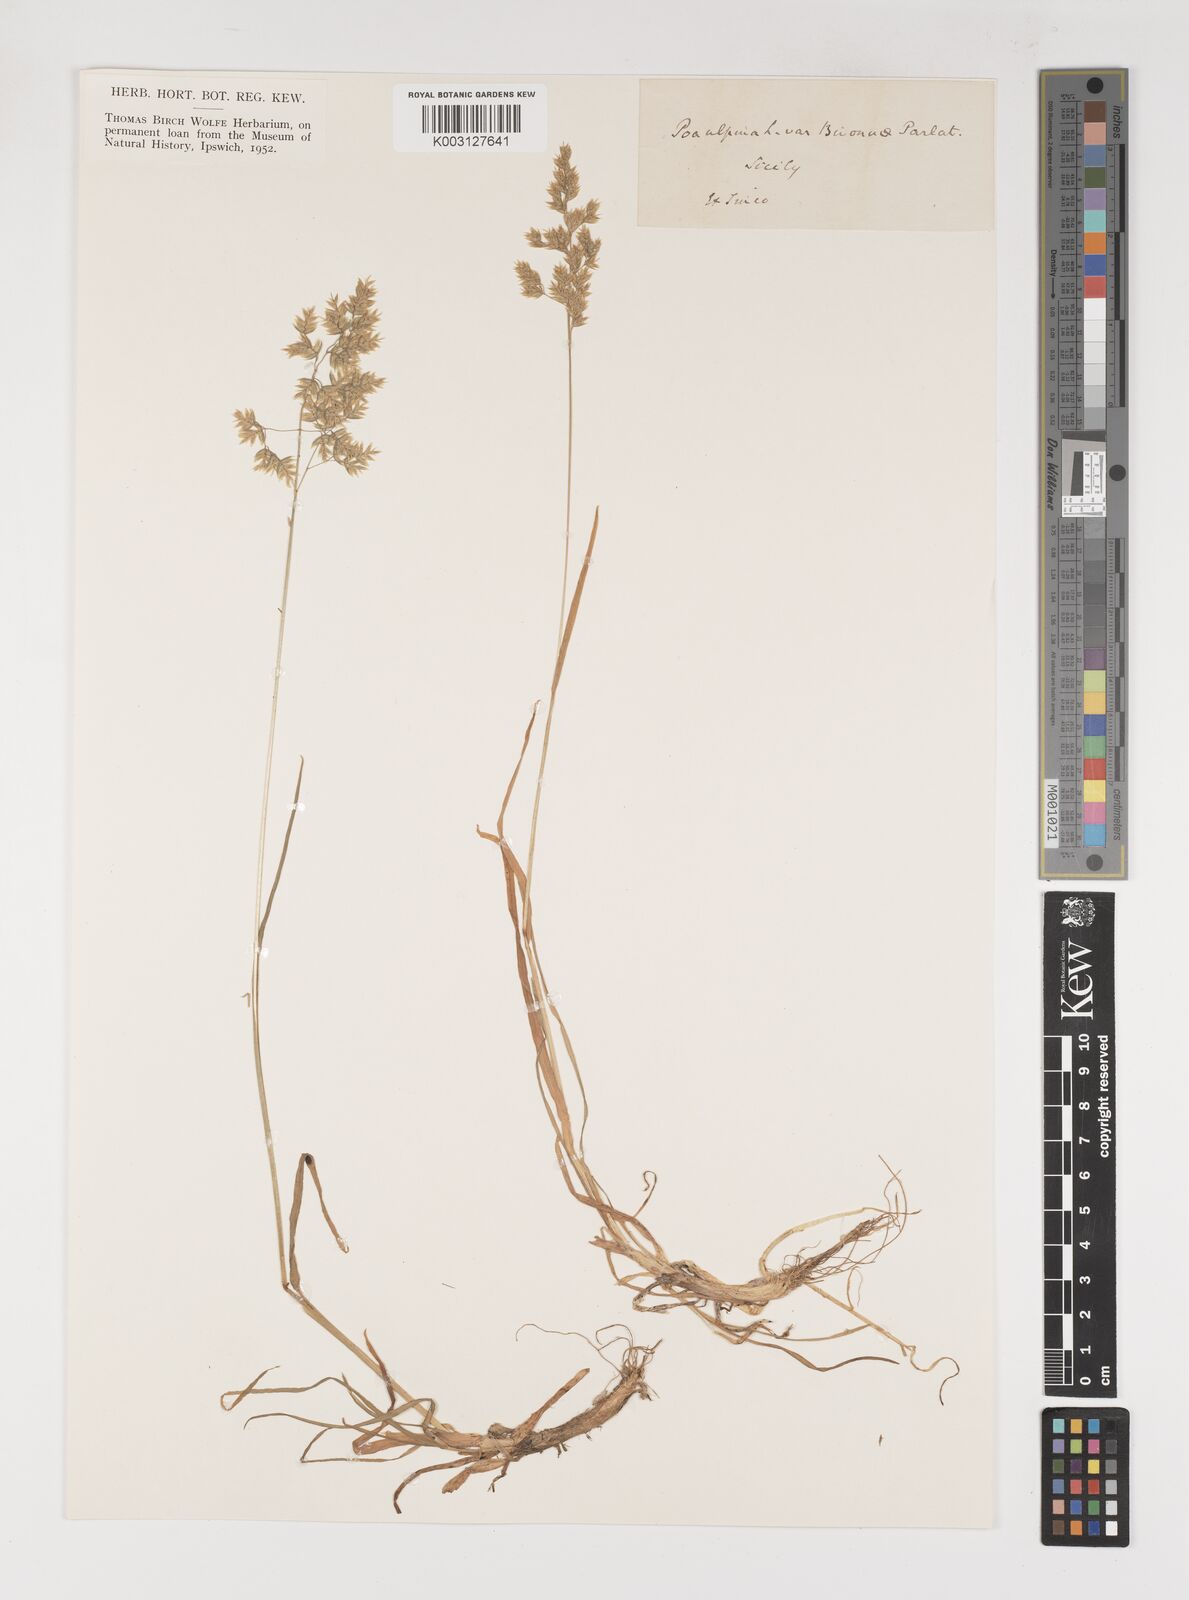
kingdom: Plantae
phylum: Tracheophyta
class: Liliopsida
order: Poales
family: Poaceae
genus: Poa
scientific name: Poa
